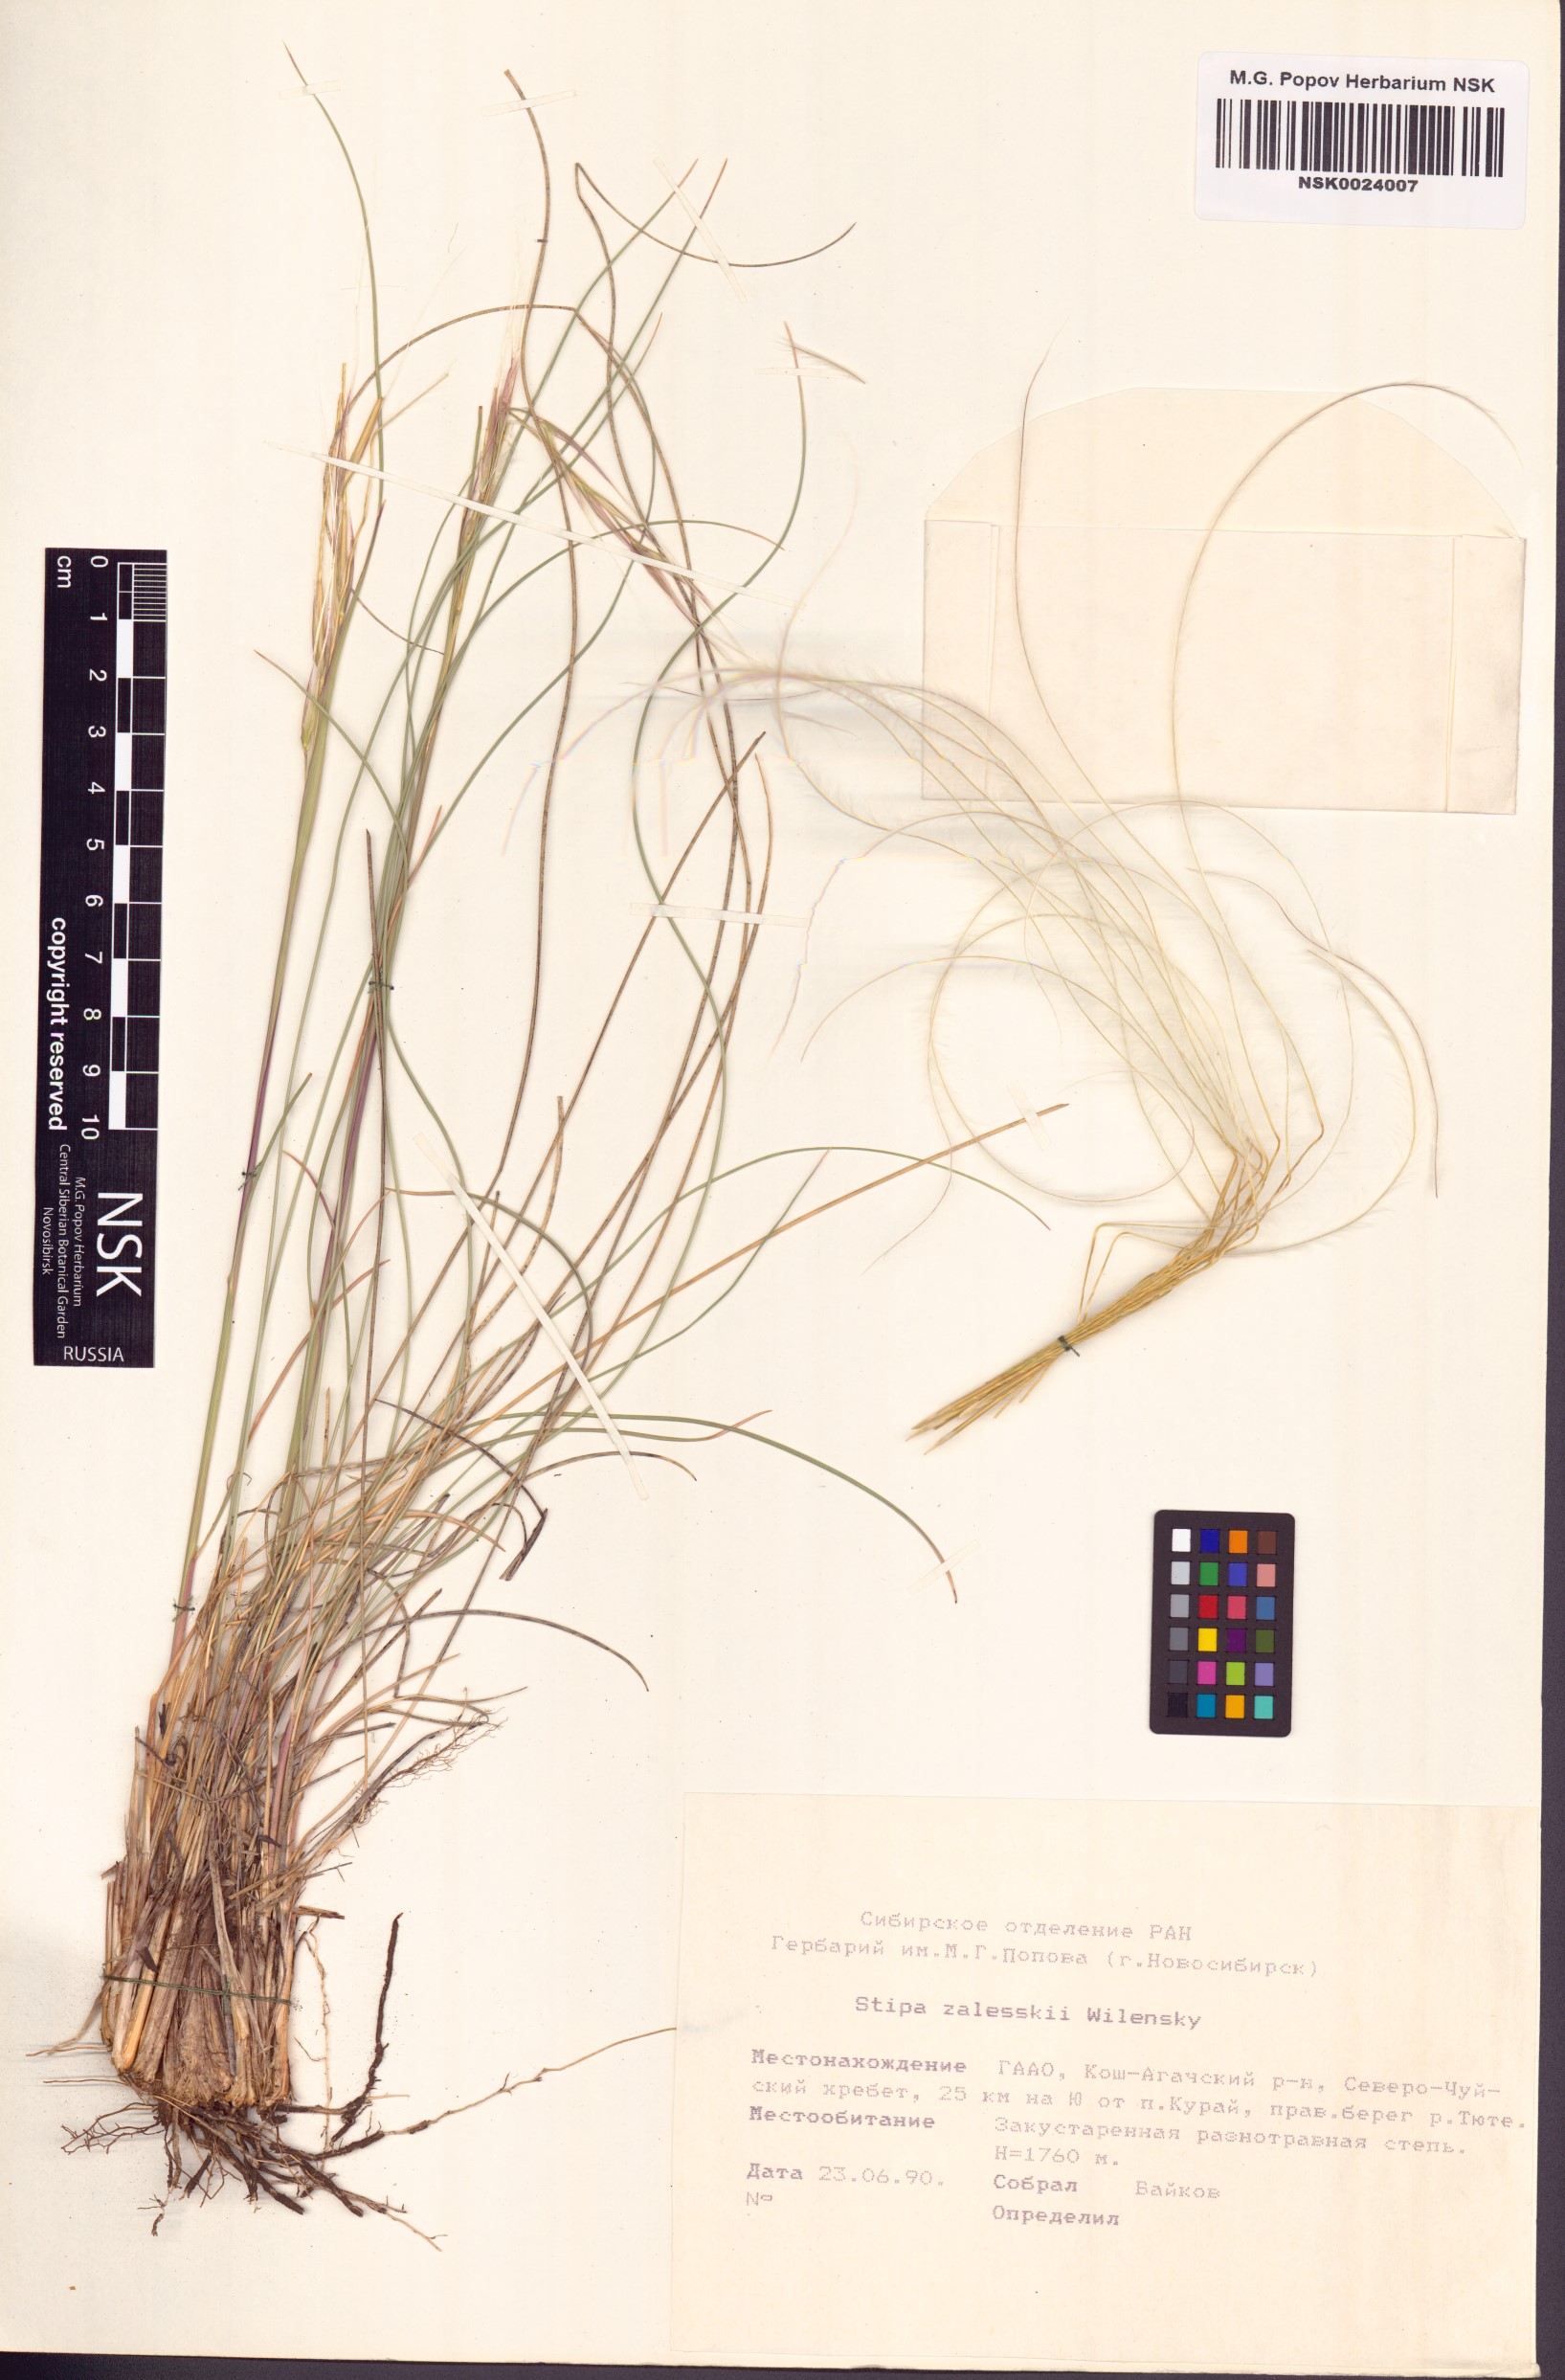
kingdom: Plantae
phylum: Tracheophyta
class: Liliopsida
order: Poales
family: Poaceae
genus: Stipa
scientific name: Stipa zalesskii
